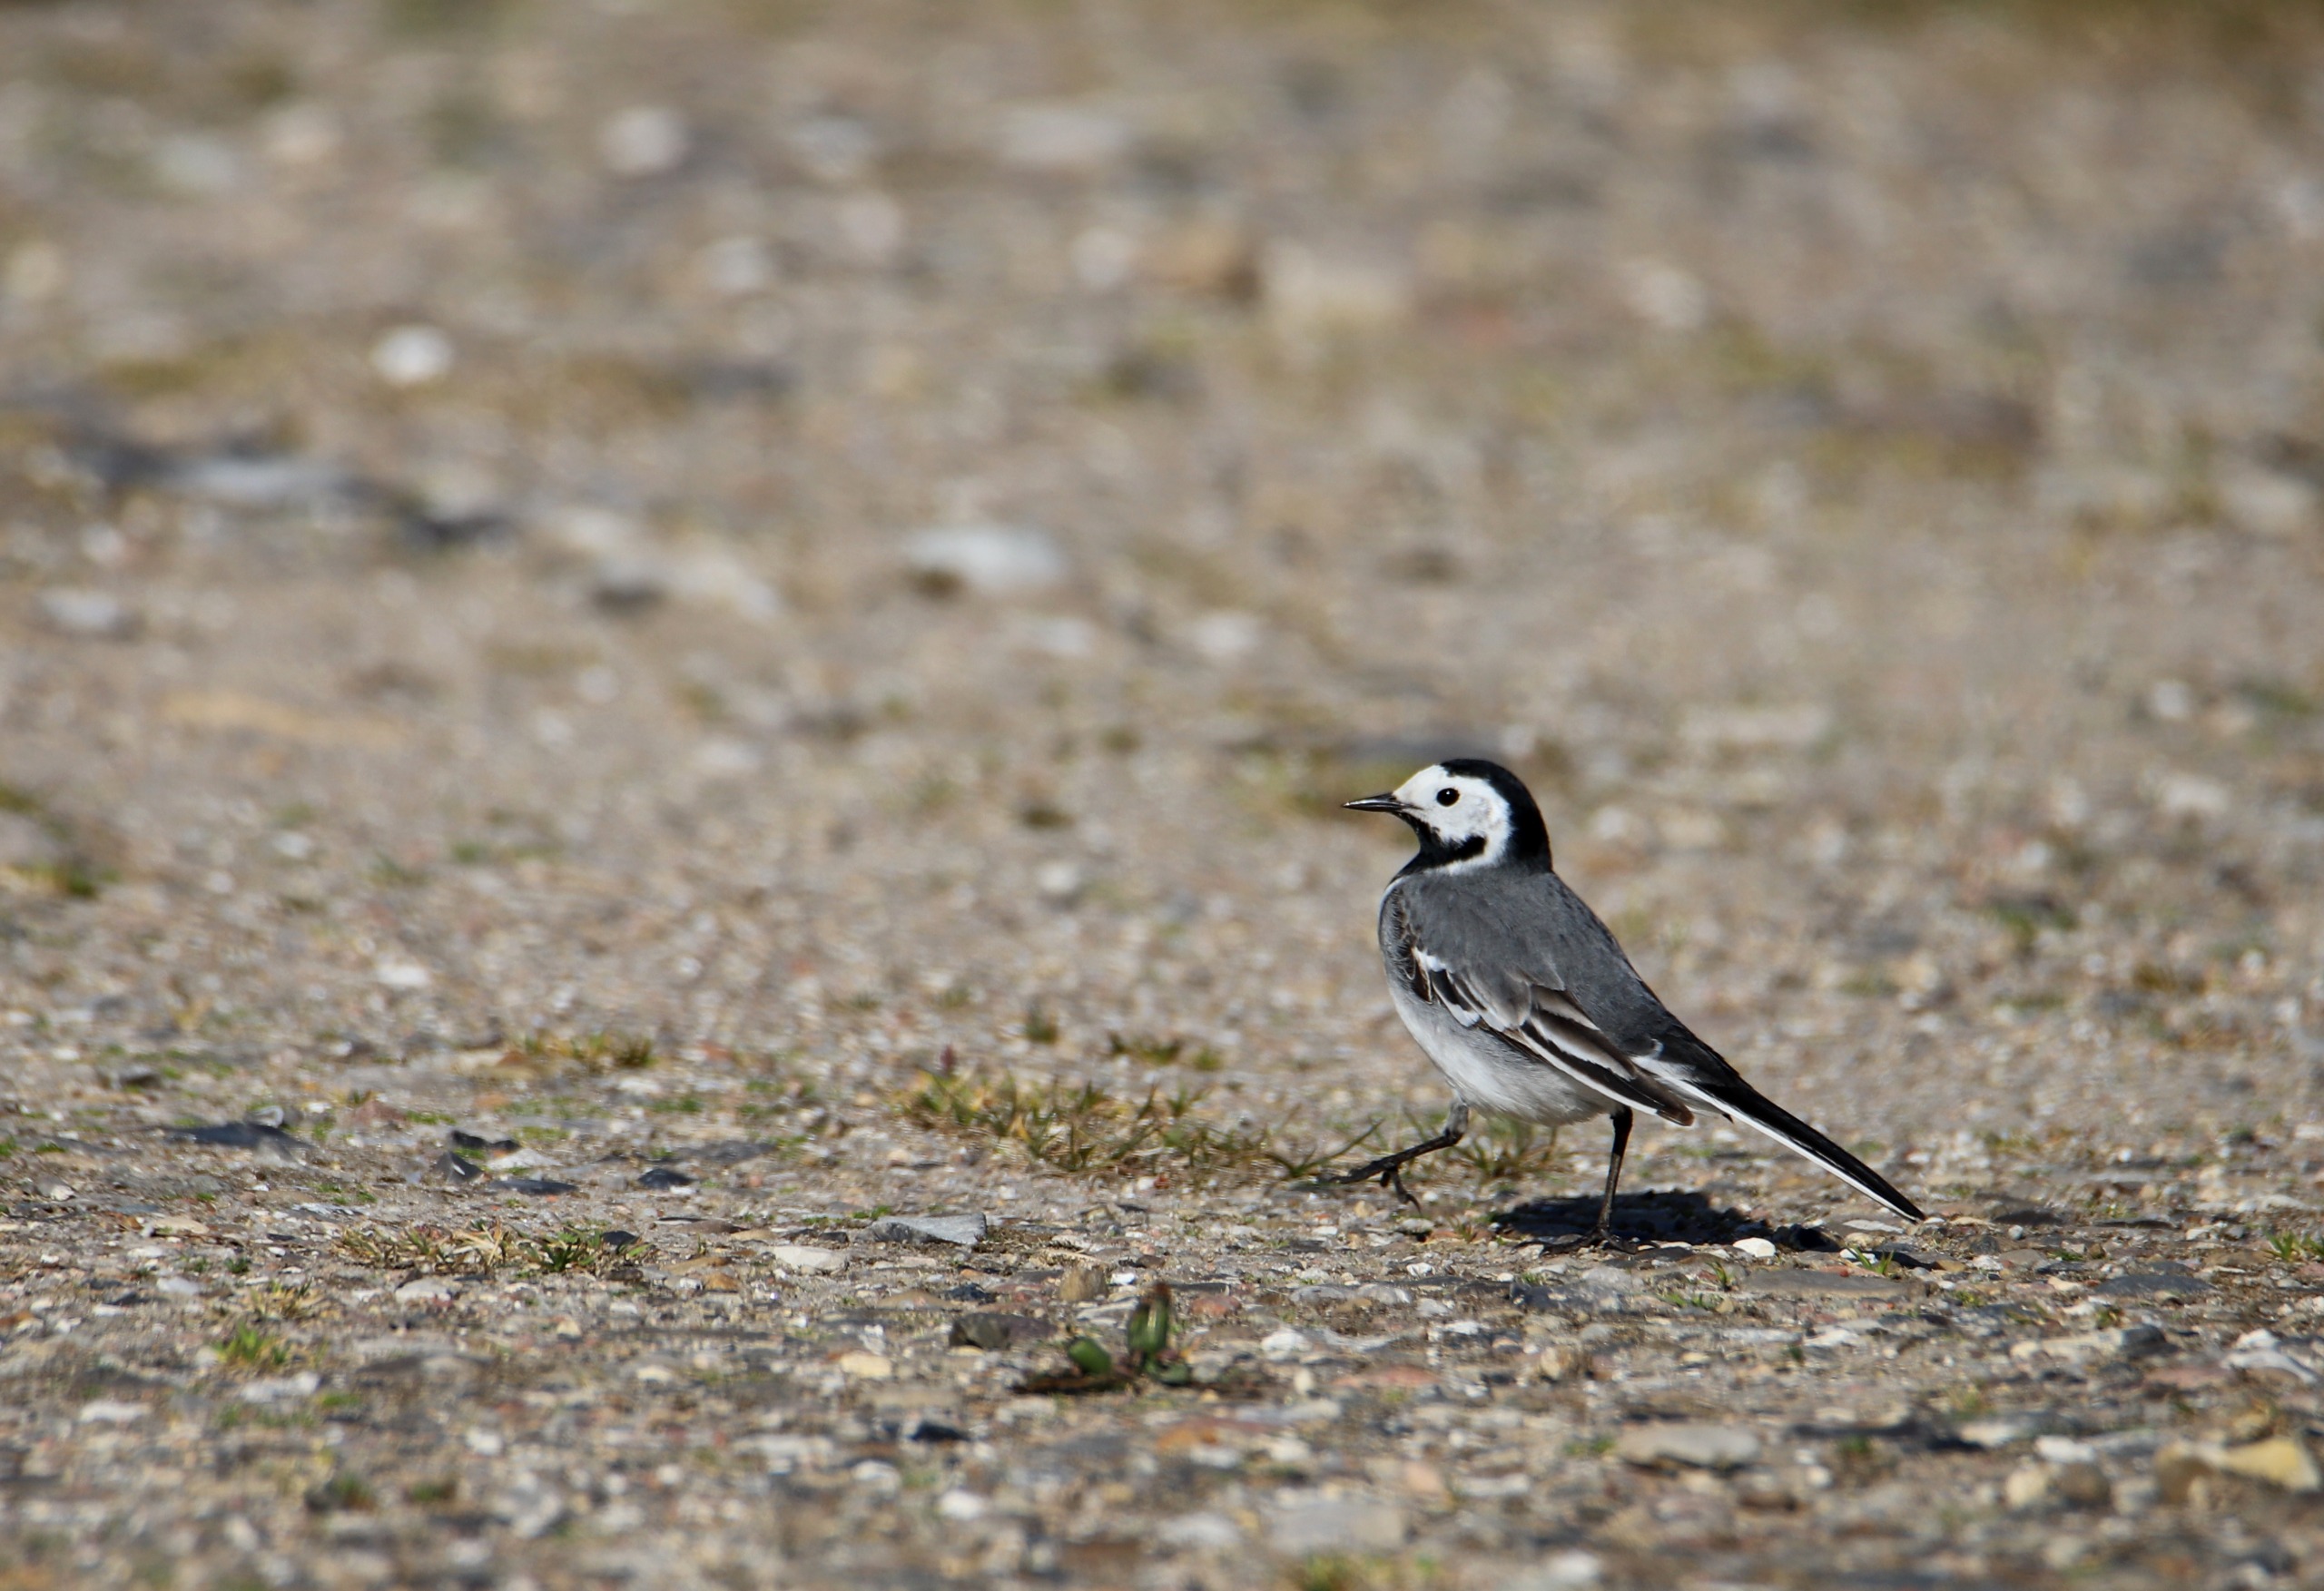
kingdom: Animalia
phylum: Chordata
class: Aves
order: Passeriformes
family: Motacillidae
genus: Motacilla
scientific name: Motacilla alba
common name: Hvid vipstjert
